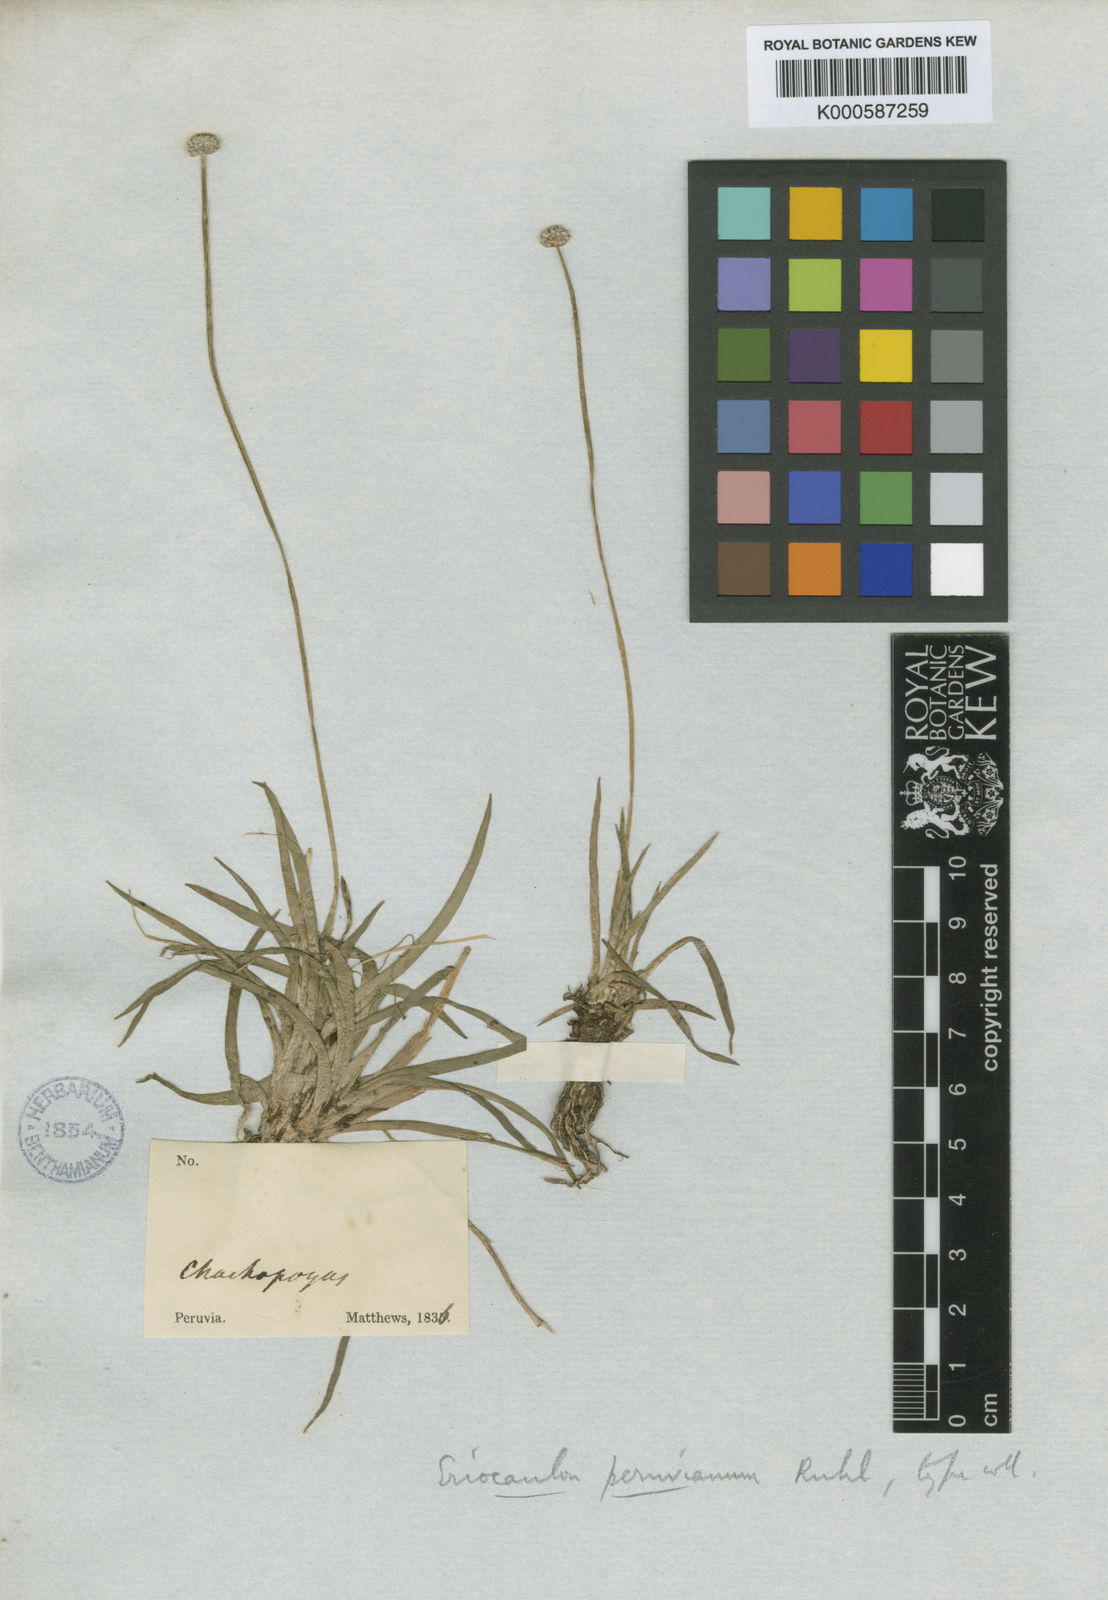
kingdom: Plantae
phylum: Tracheophyta
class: Liliopsida
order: Poales
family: Eriocaulaceae
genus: Eriocaulon
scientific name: Eriocaulon peruvianum
